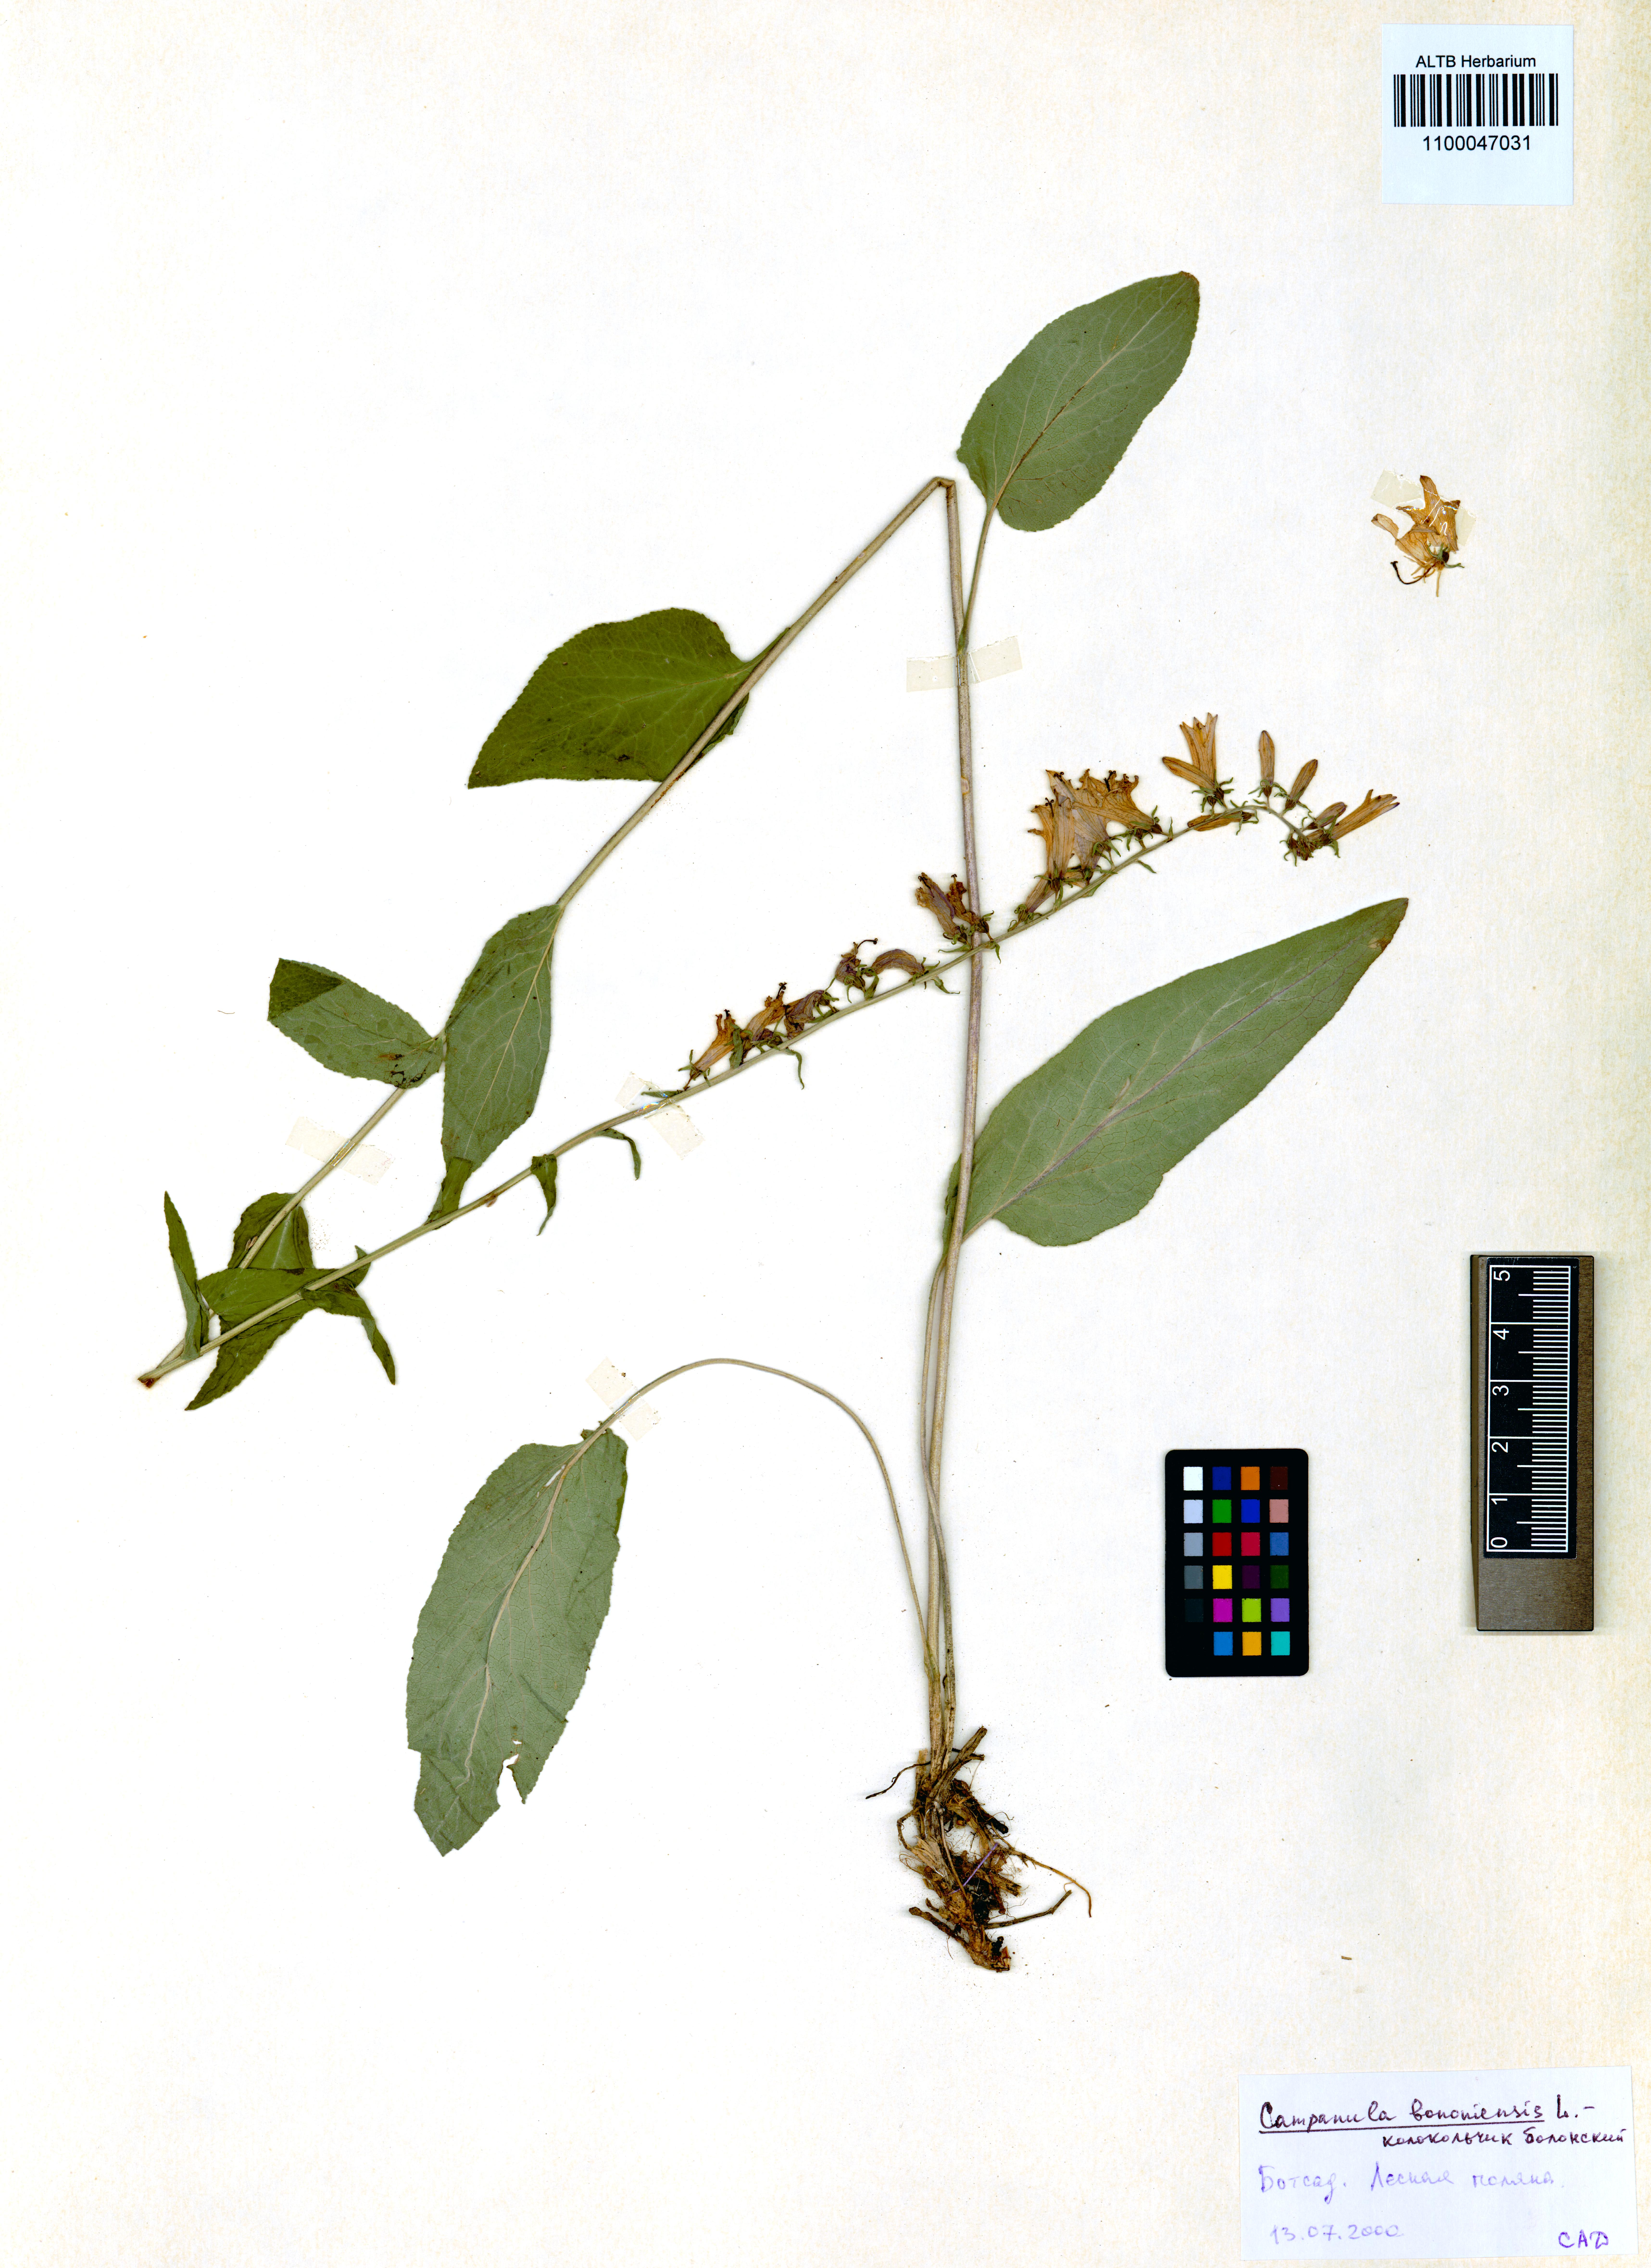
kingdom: Plantae
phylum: Tracheophyta
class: Magnoliopsida
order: Asterales
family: Campanulaceae
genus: Campanula
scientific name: Campanula bononiensis
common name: Pale bellflower
